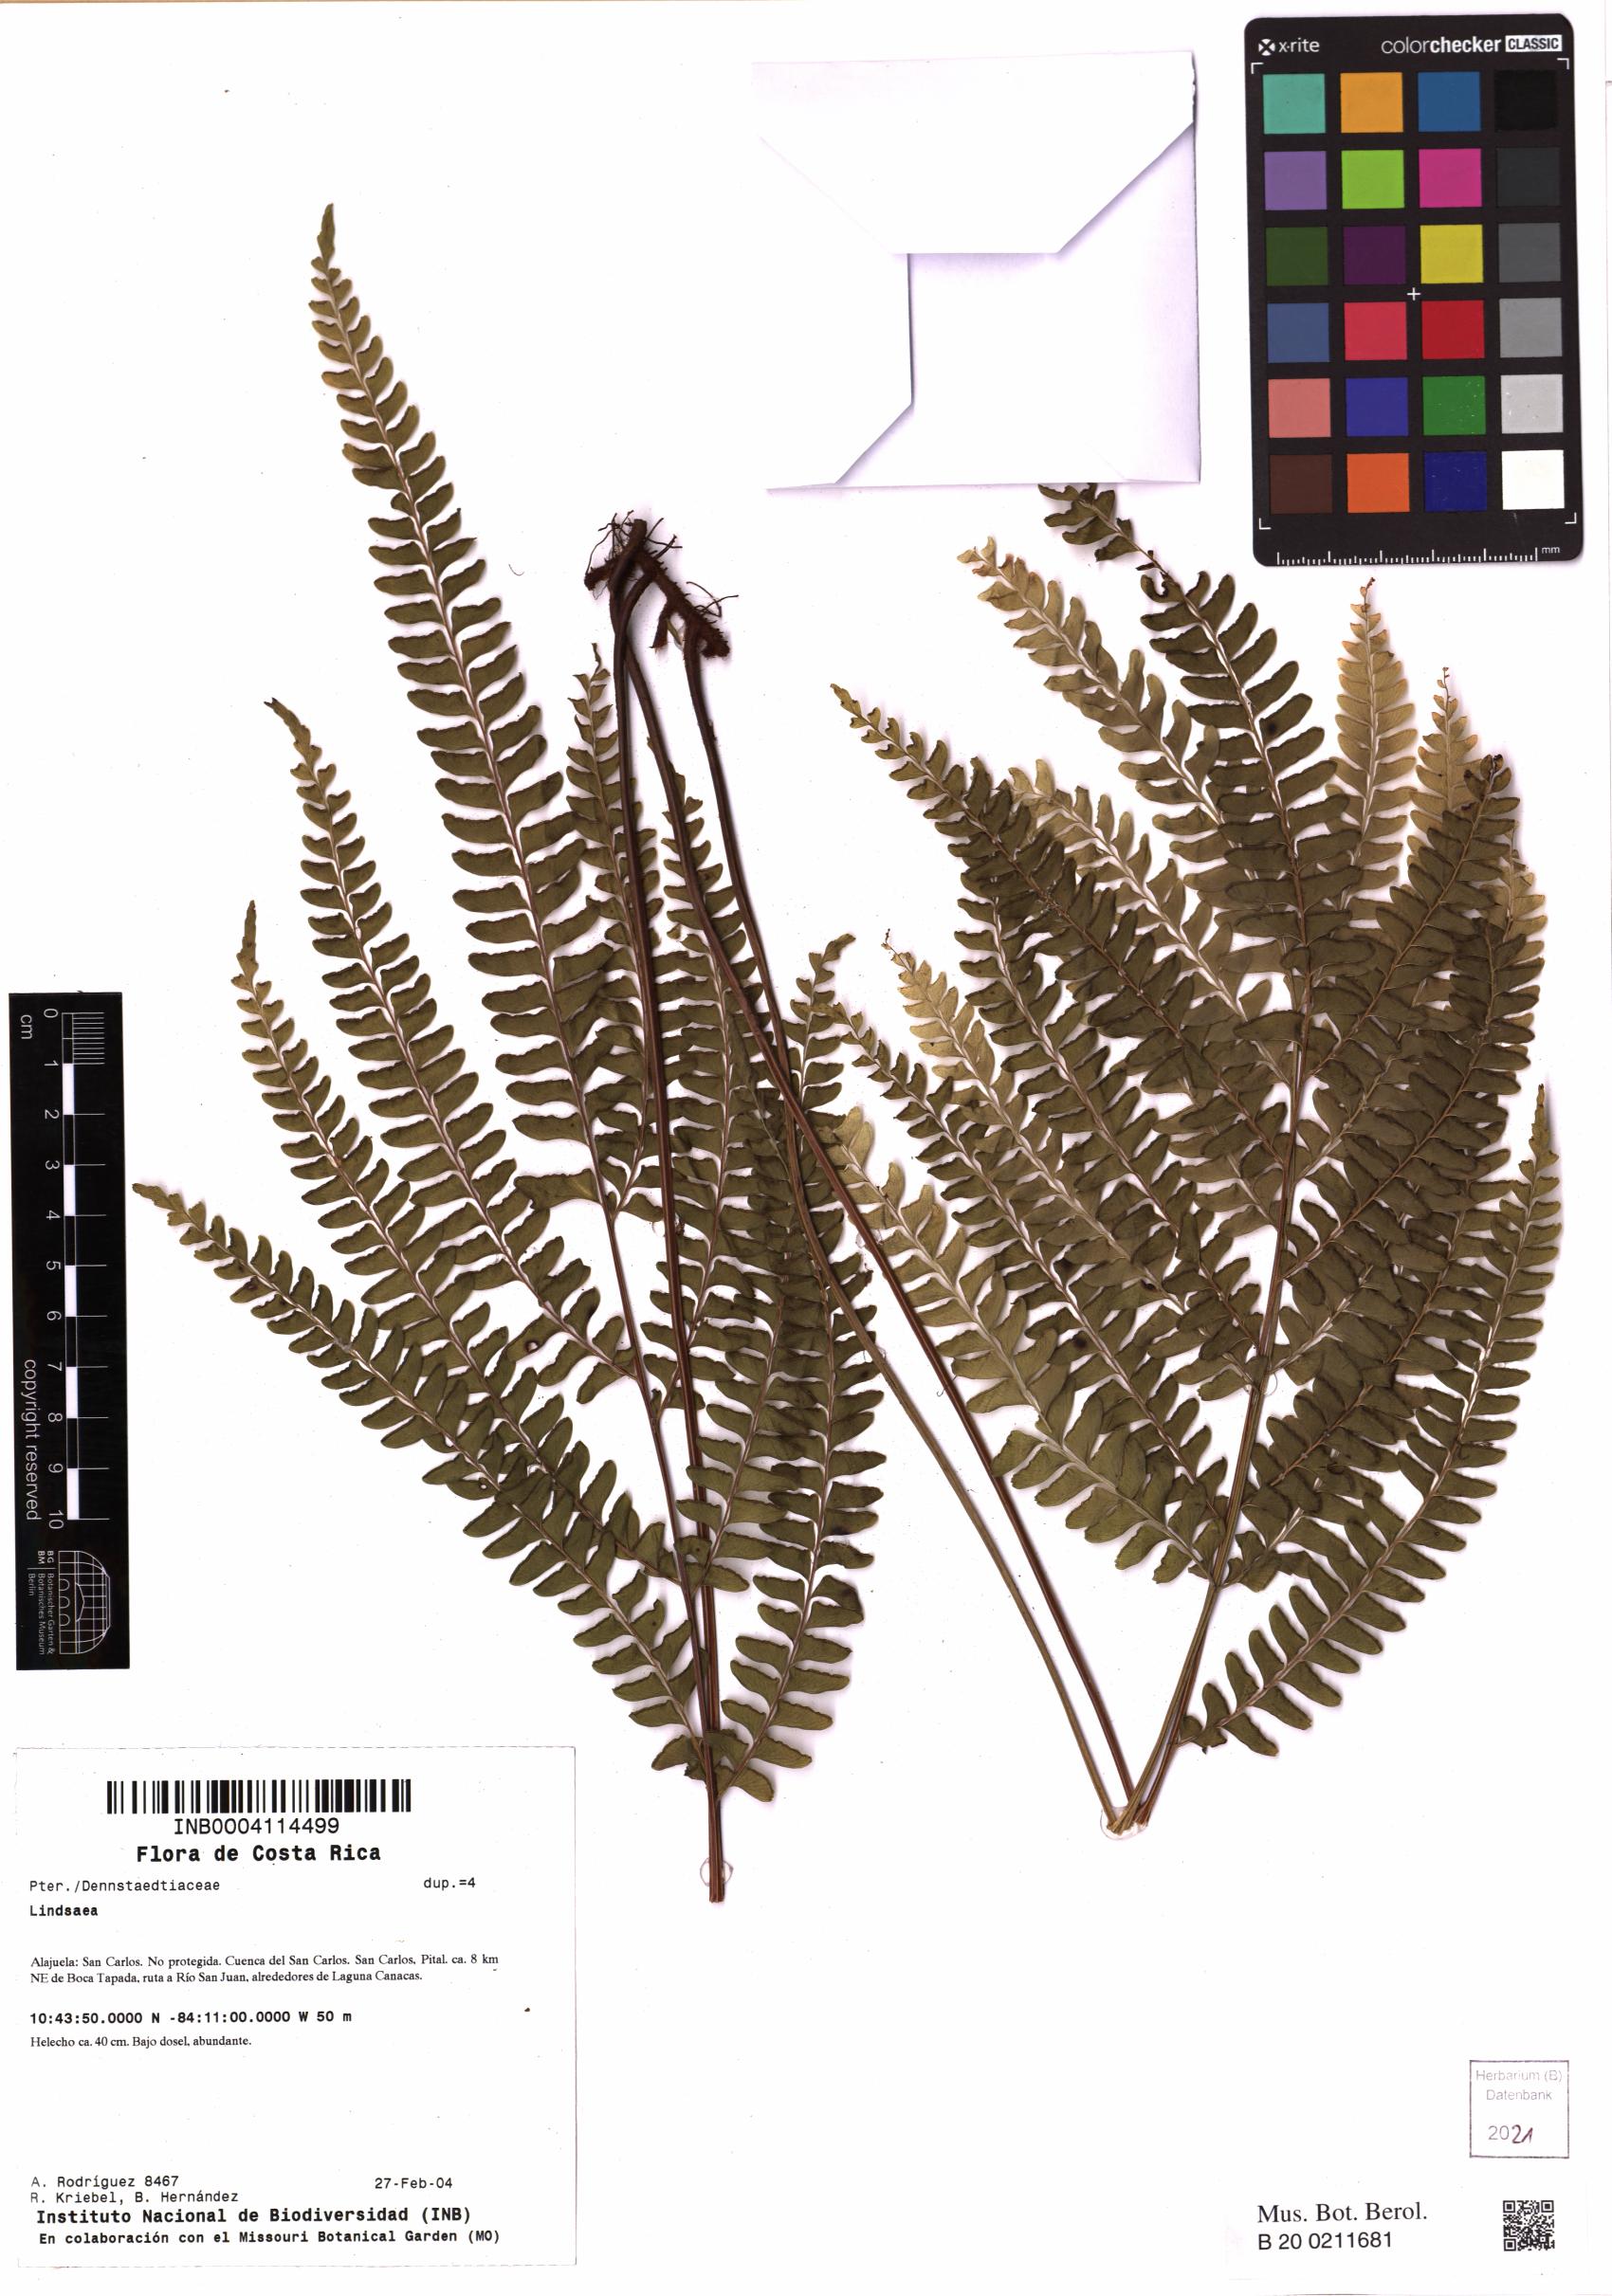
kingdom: Plantae
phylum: Tracheophyta
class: Polypodiopsida
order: Polypodiales
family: Lindsaeaceae
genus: Lindsaea
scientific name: Lindsaea
